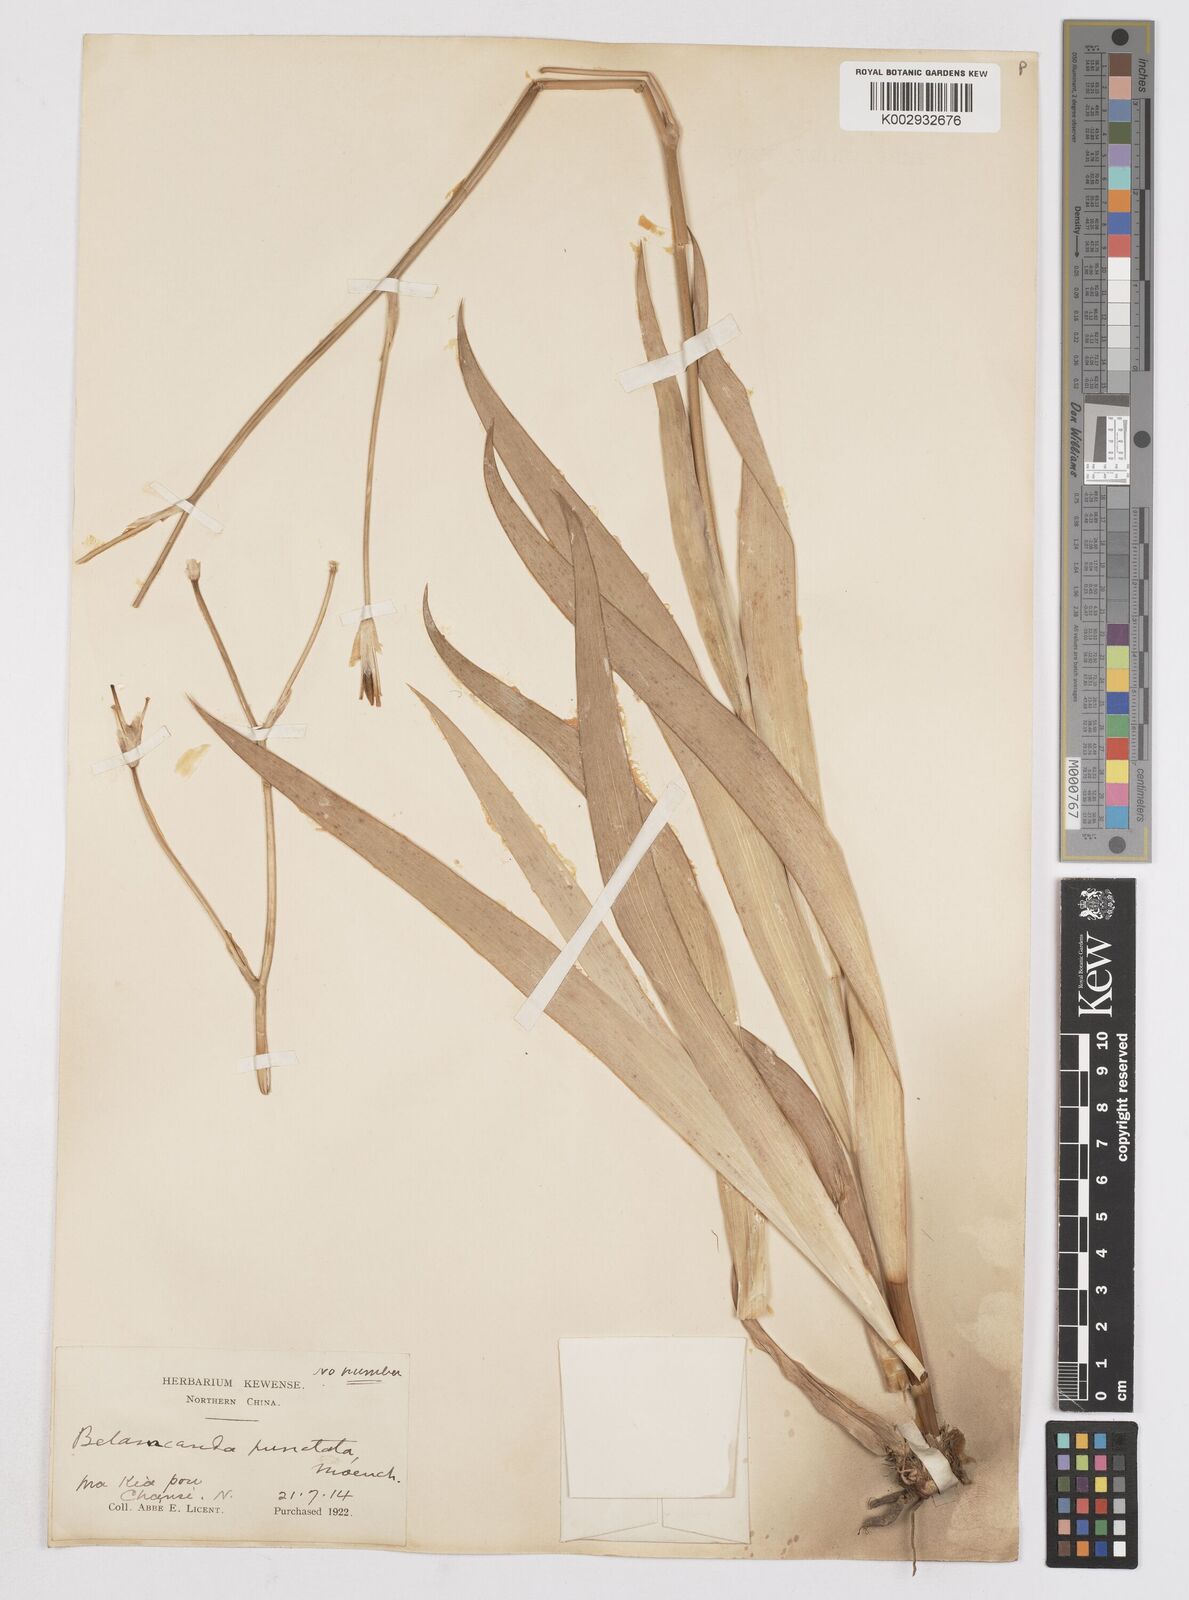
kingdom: Plantae
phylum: Tracheophyta
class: Liliopsida
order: Asparagales
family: Iridaceae
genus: Iris
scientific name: Iris
